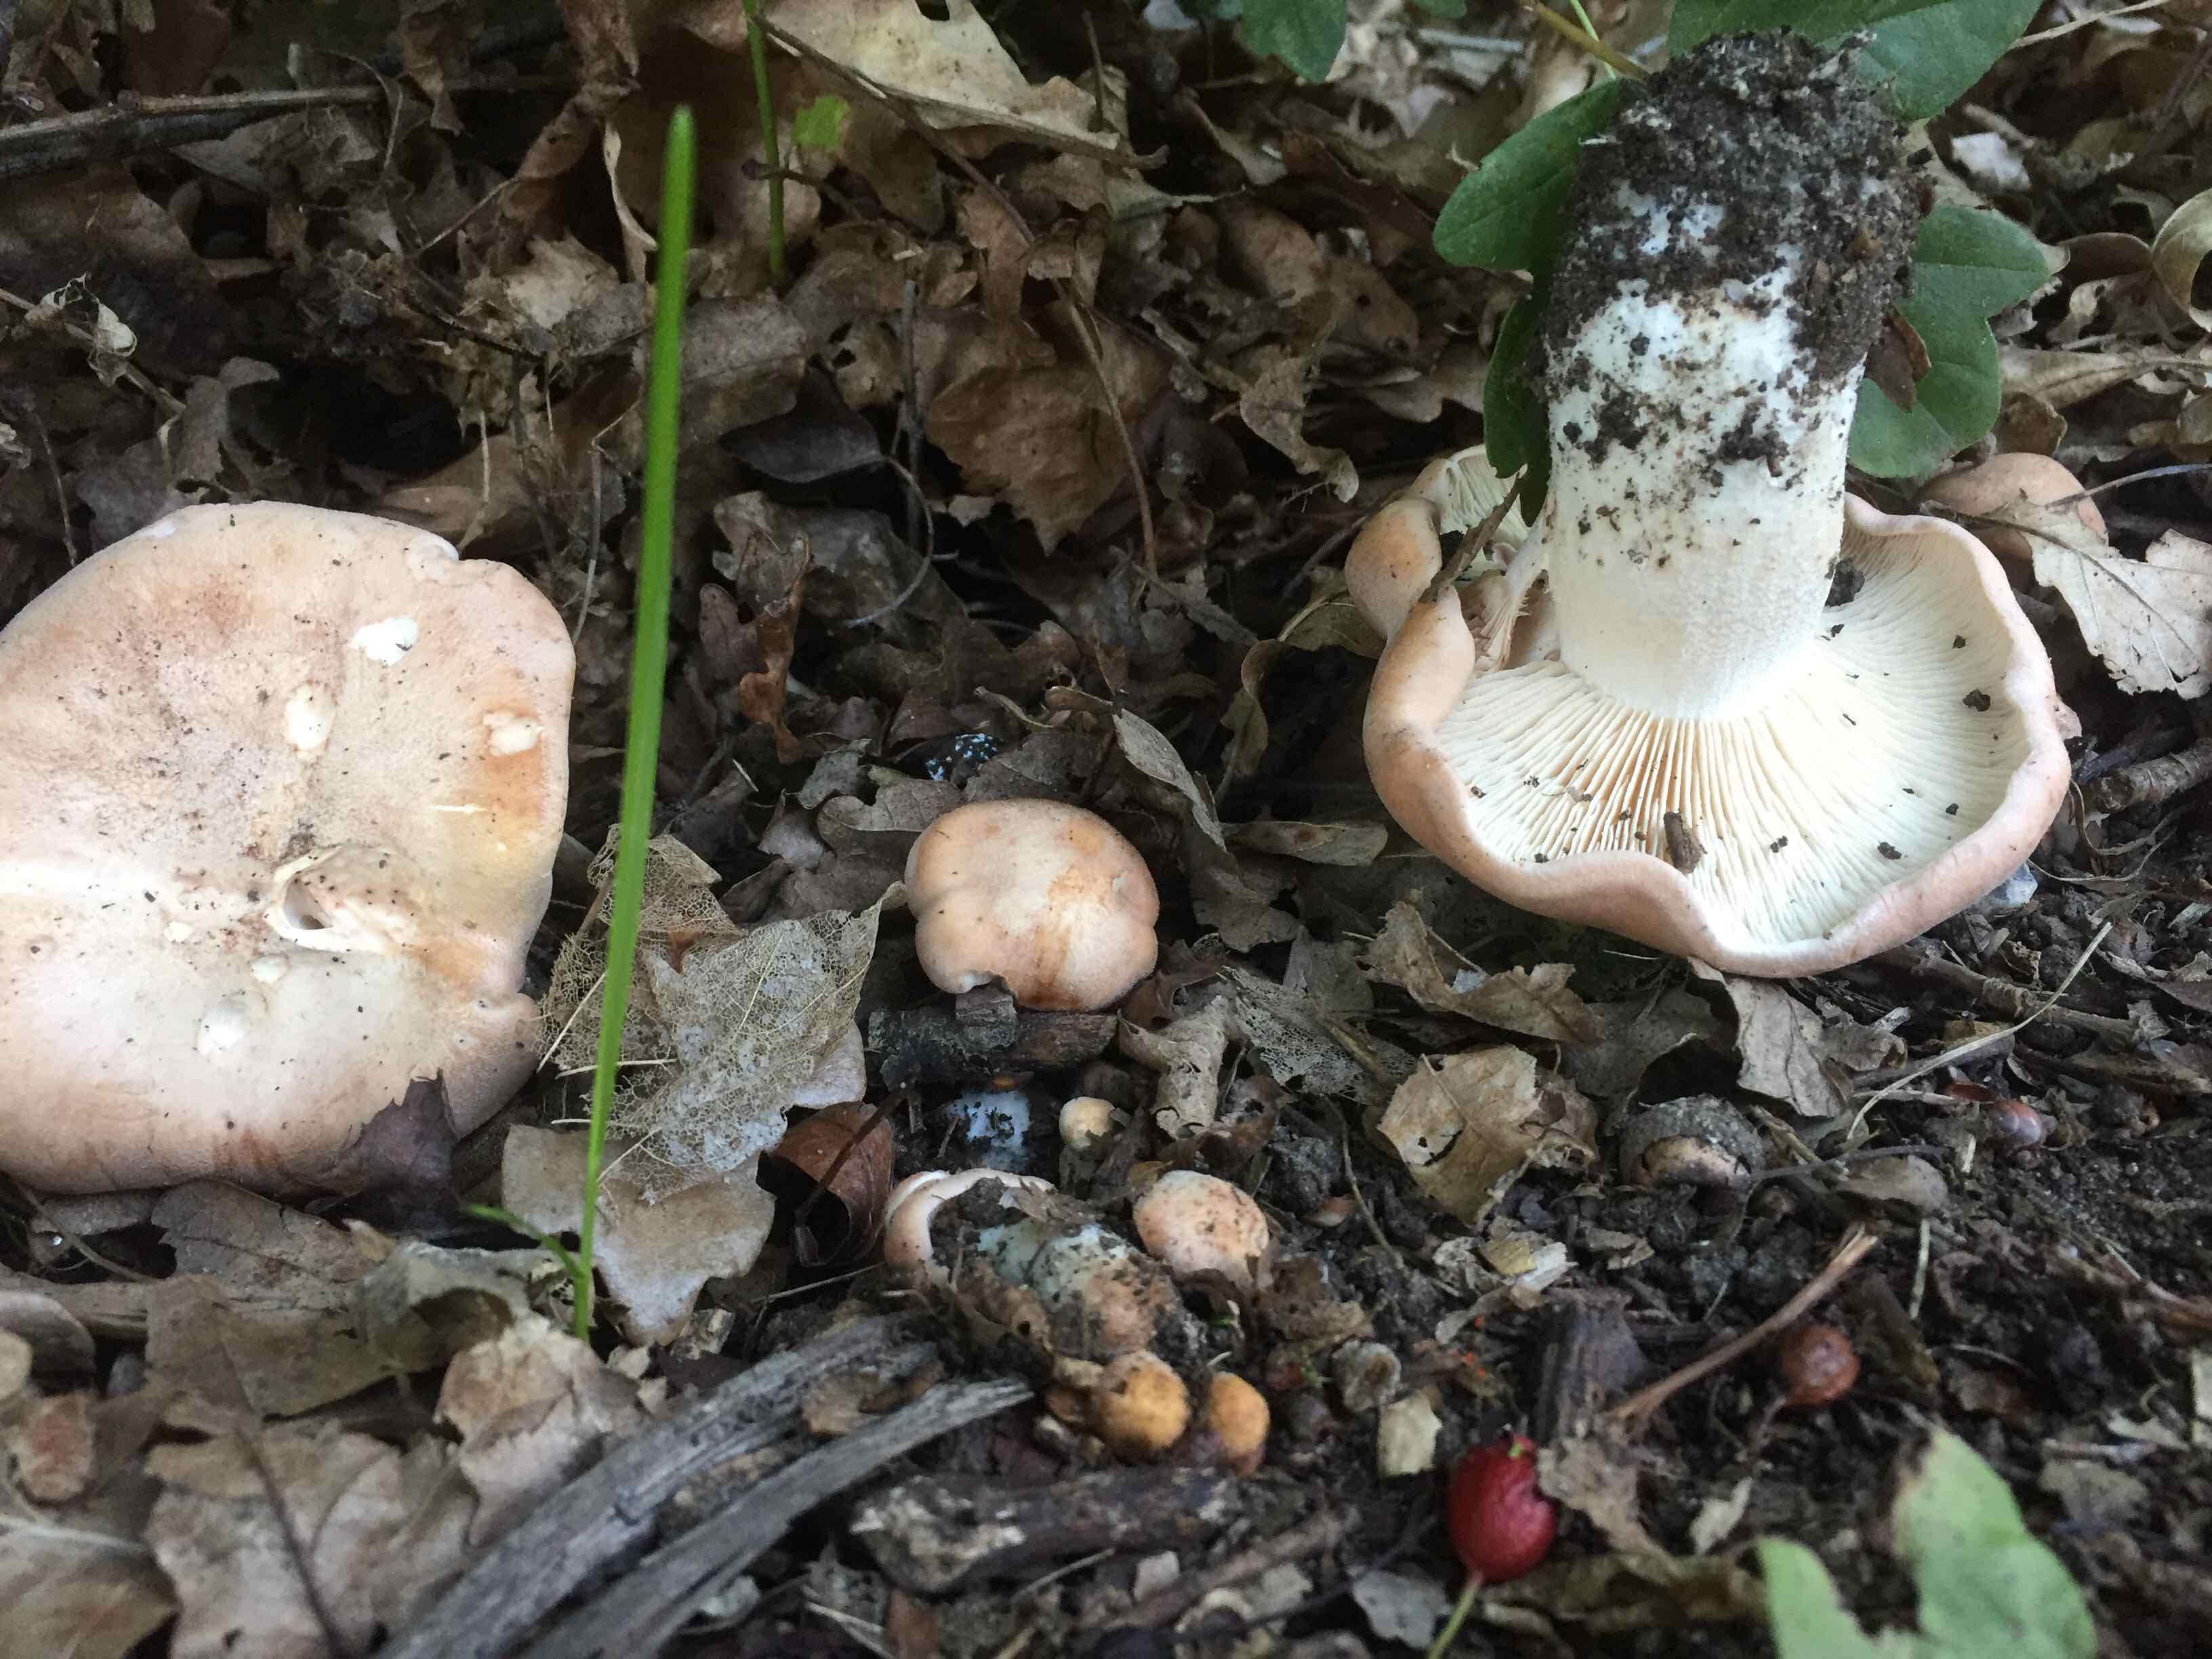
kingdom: Fungi
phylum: Basidiomycota
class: Agaricomycetes
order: Agaricales
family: Entolomataceae
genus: Clitopilus
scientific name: Clitopilus geminus
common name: kødfarvet troldhat
